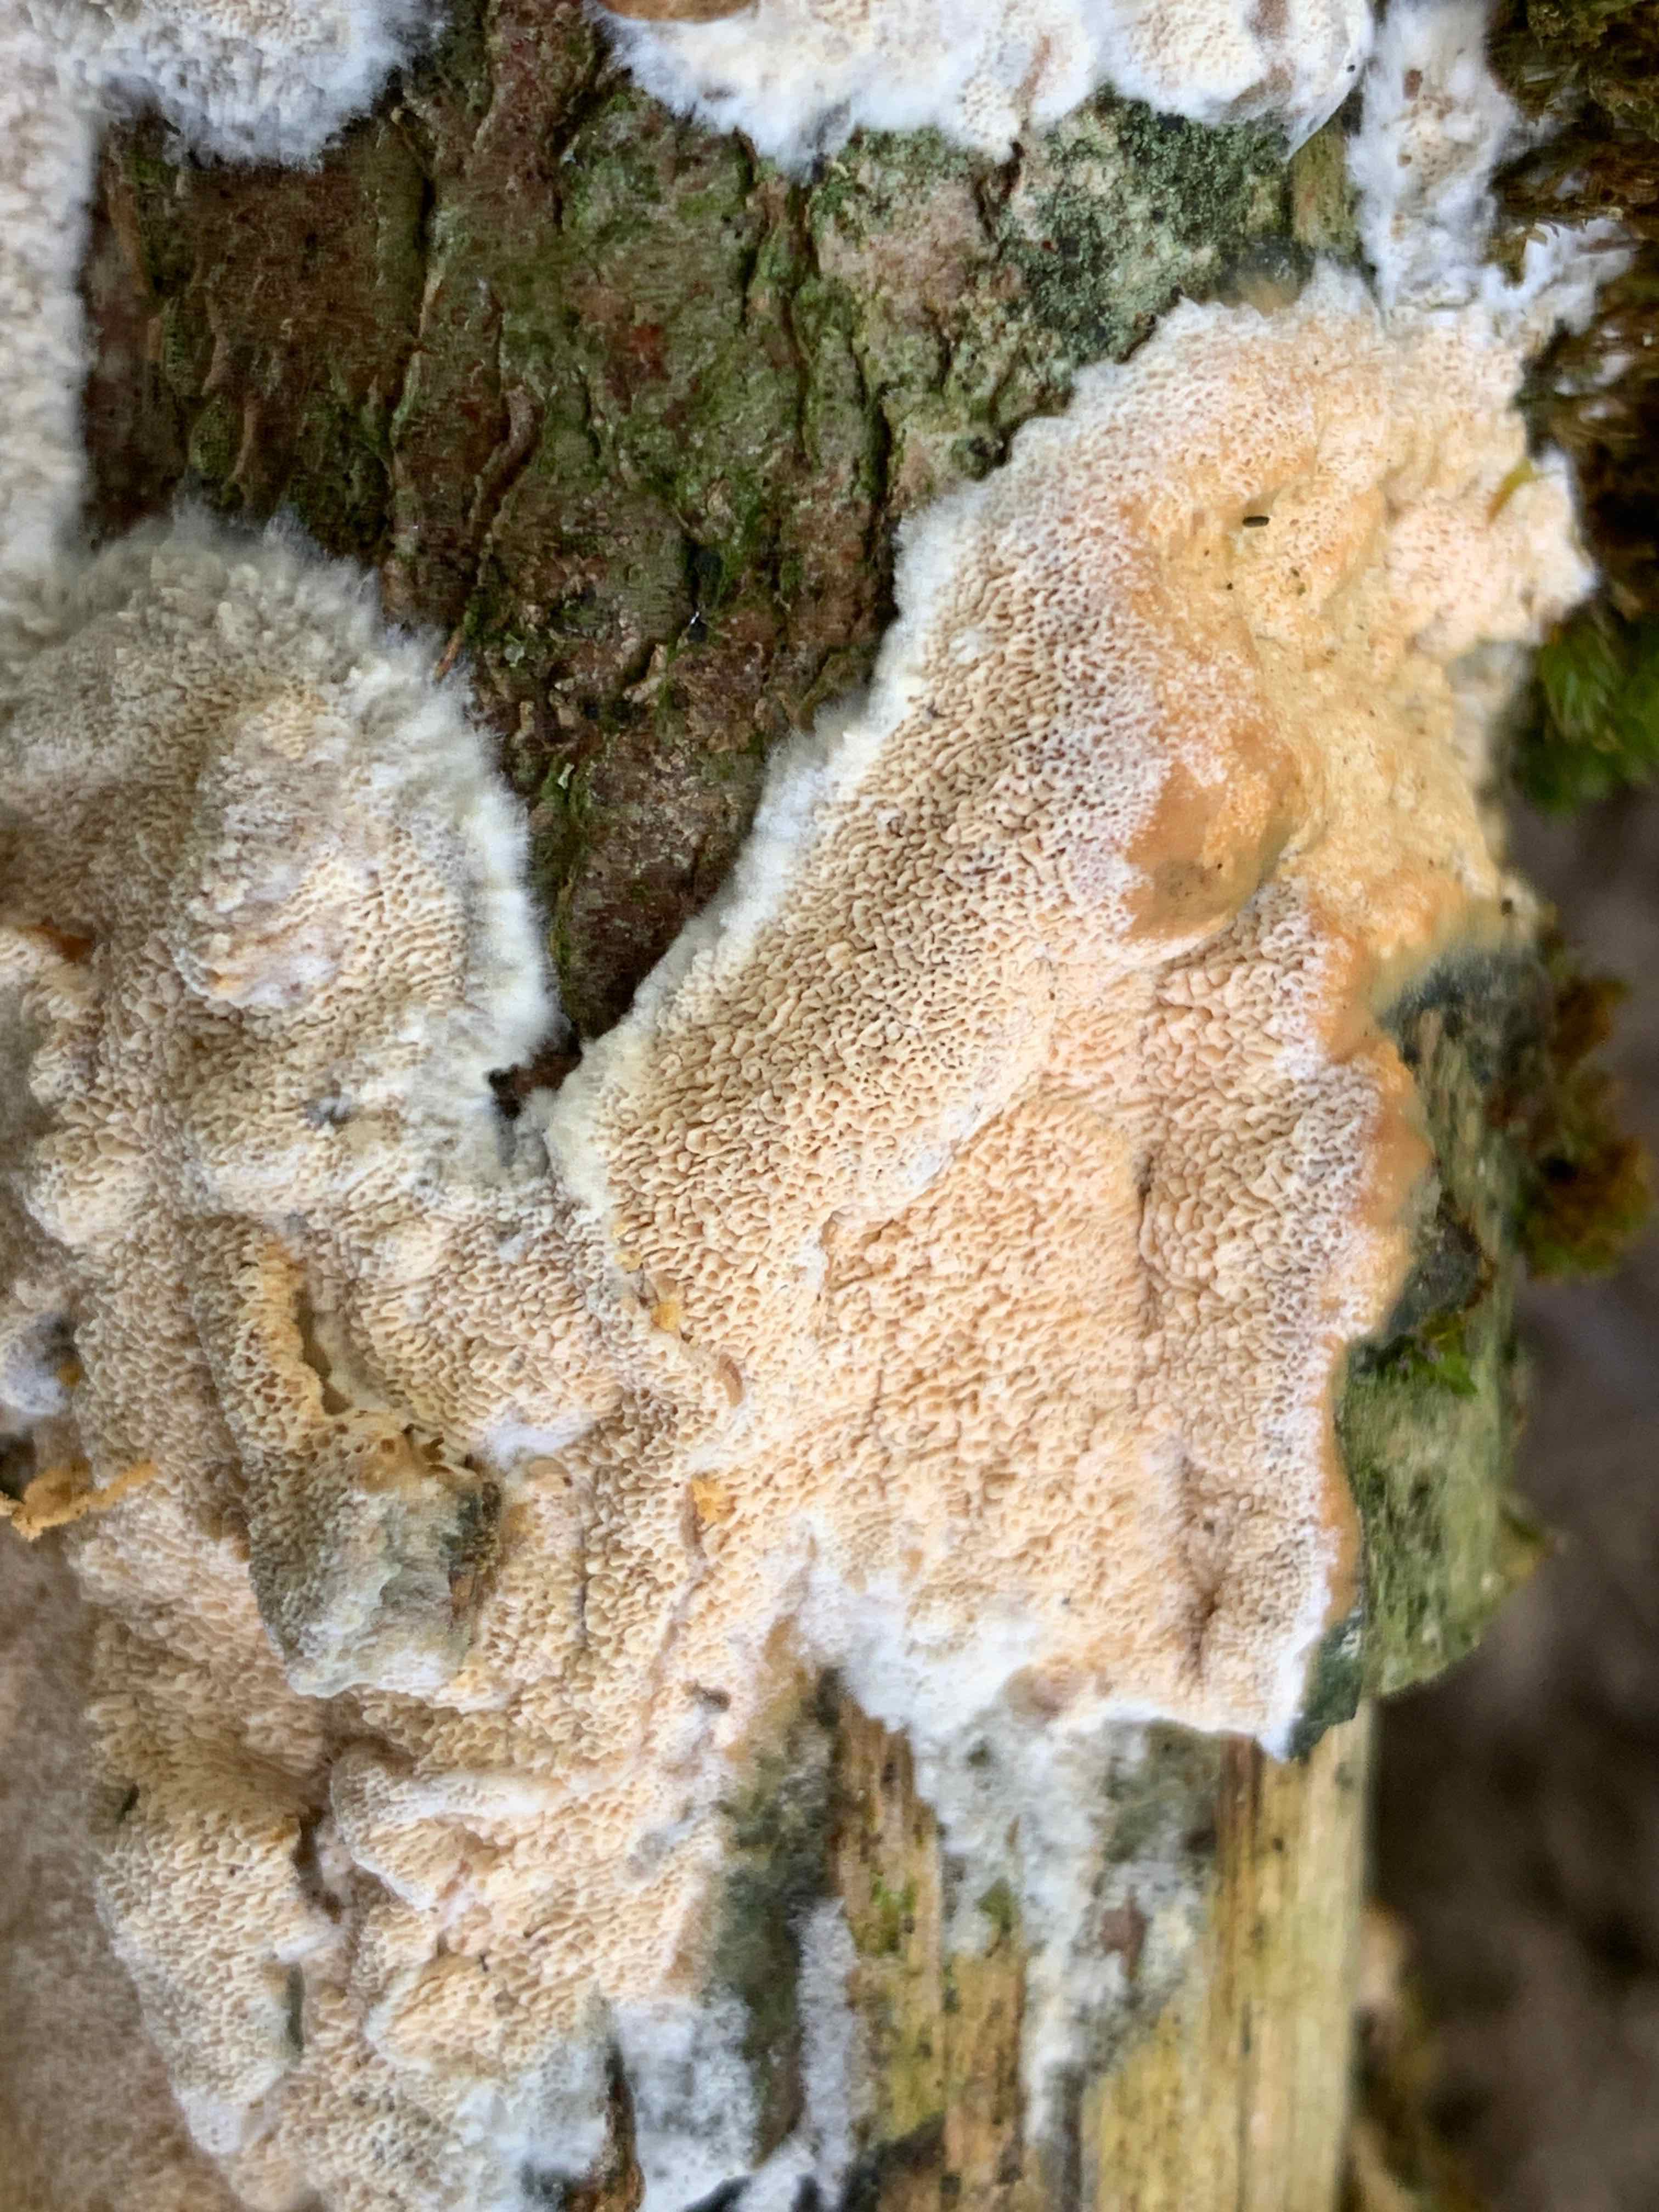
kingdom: Fungi
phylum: Basidiomycota
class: Agaricomycetes
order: Hymenochaetales
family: Schizoporaceae
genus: Xylodon
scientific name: Xylodon flaviporus
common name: gulporet tandsvamp
